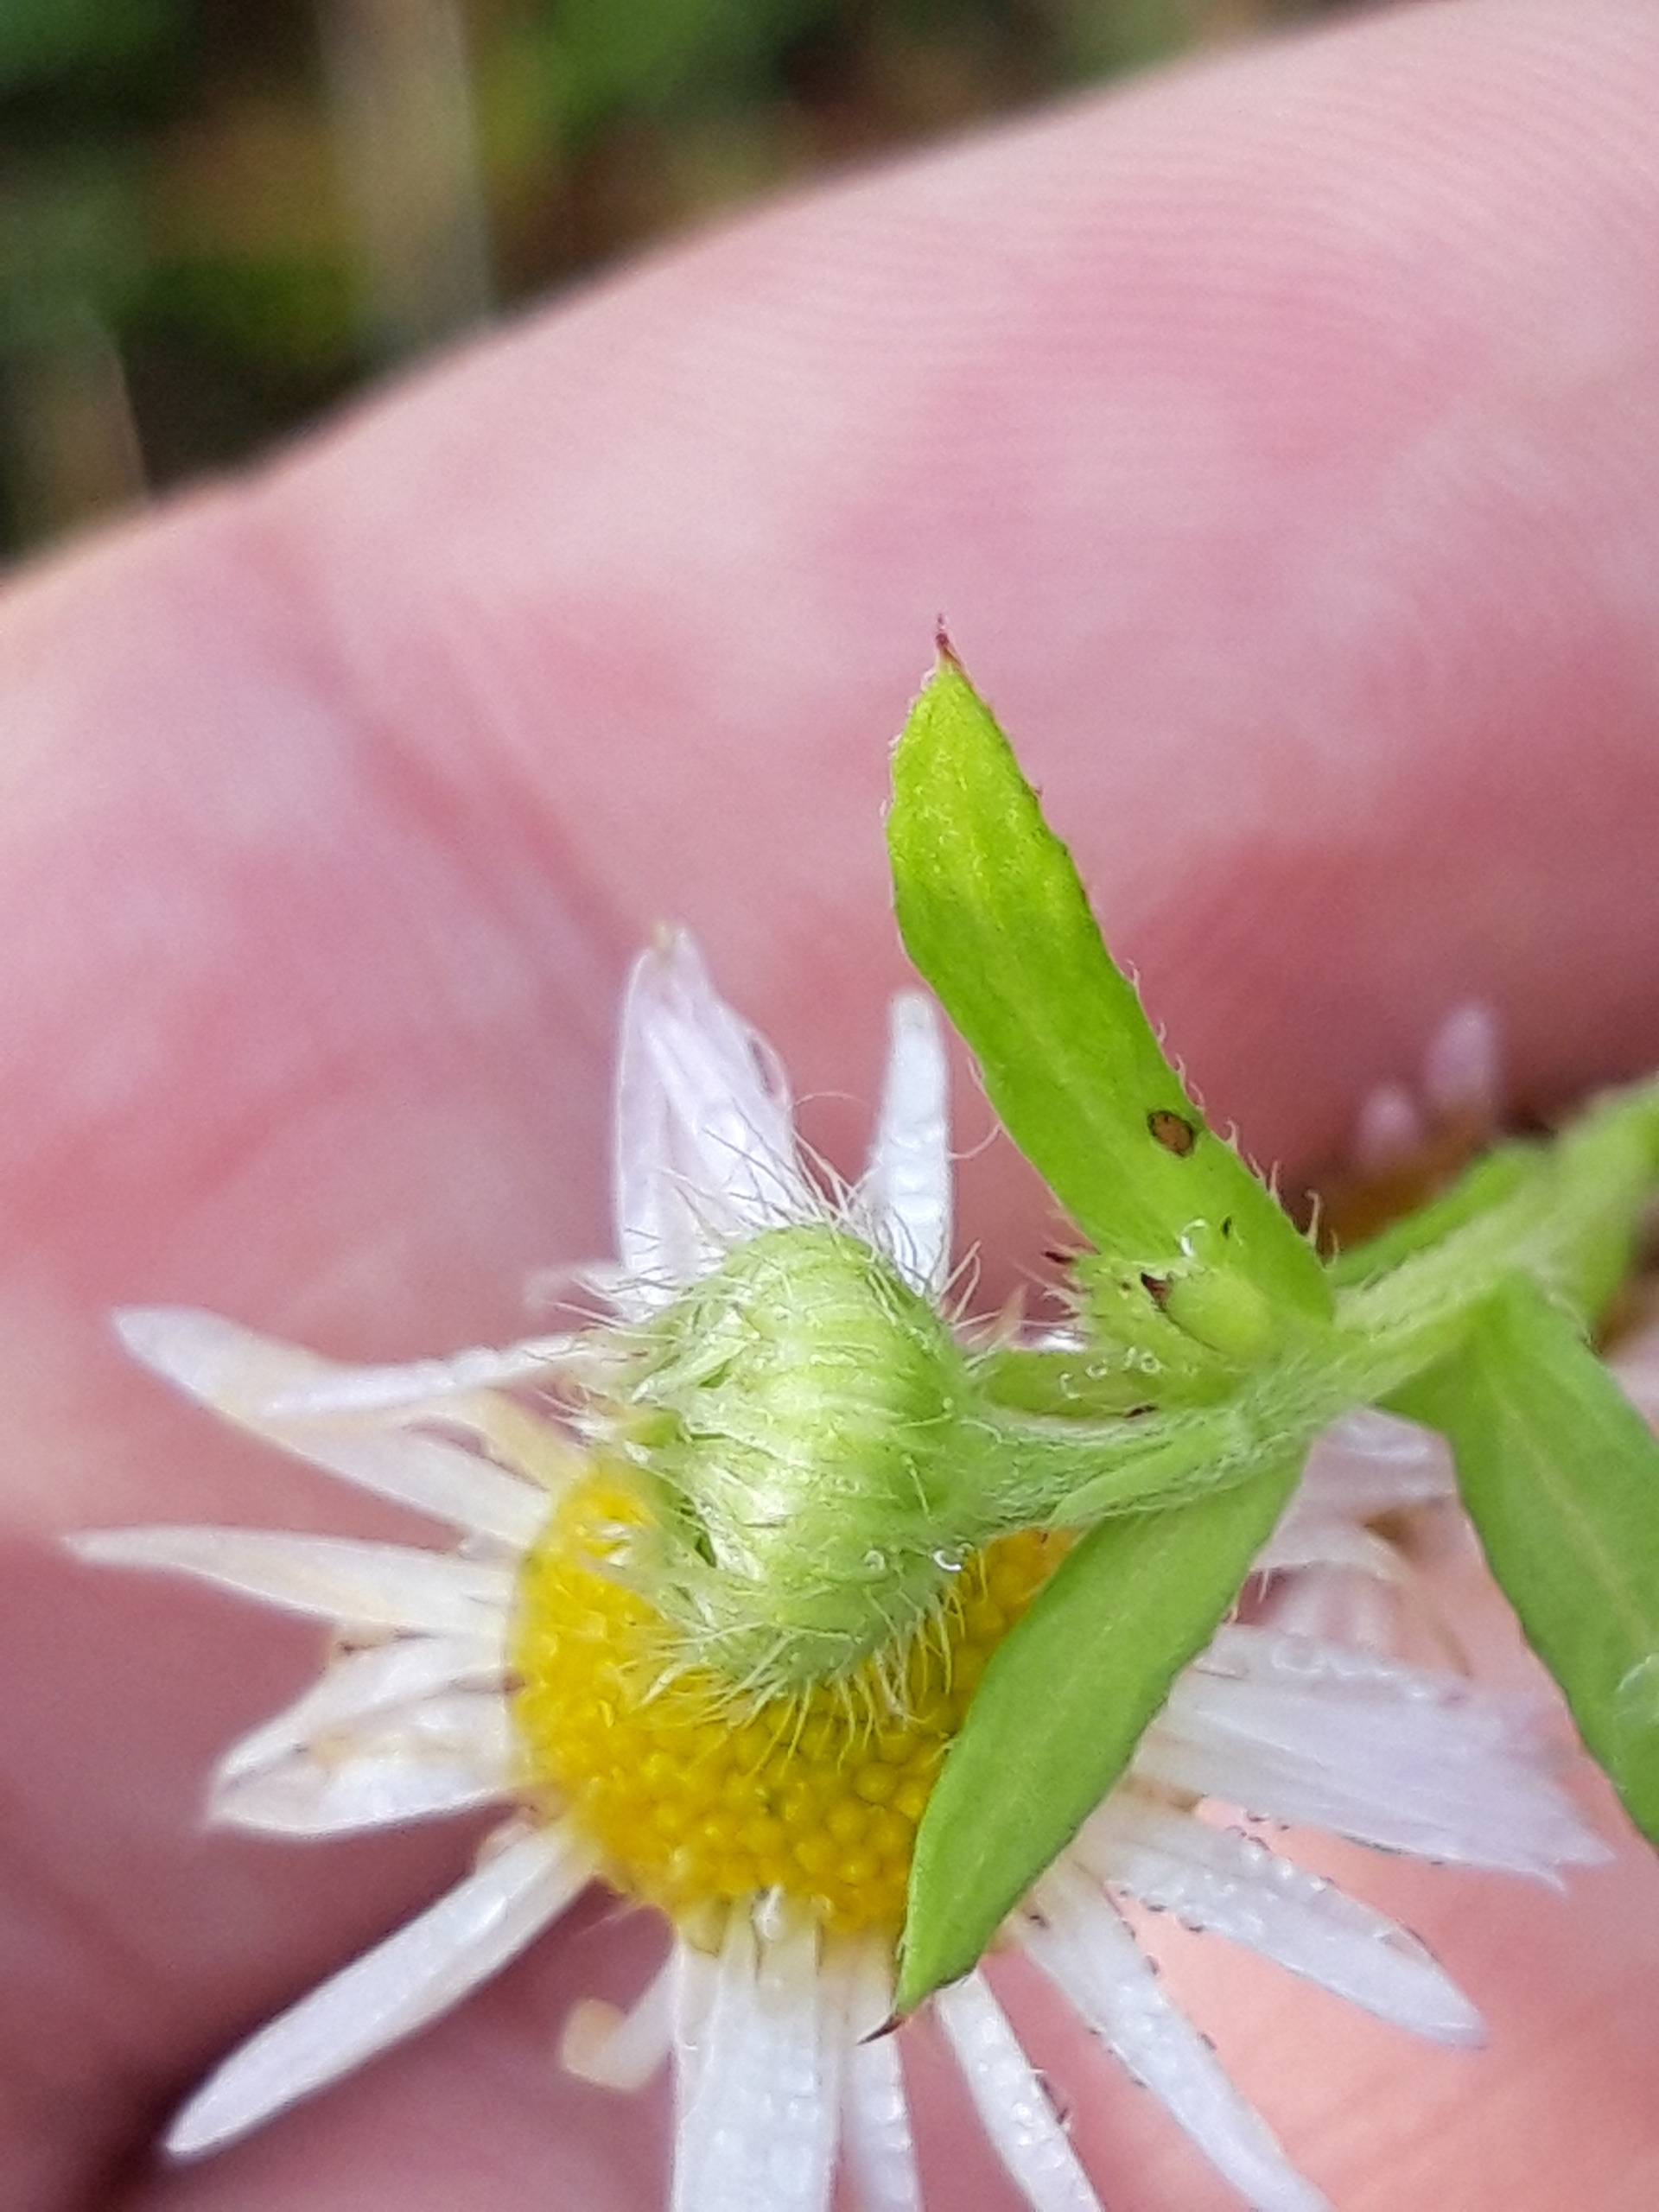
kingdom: Plantae
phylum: Tracheophyta
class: Magnoliopsida
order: Asterales
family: Asteraceae
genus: Erigeron
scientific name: Erigeron annuus
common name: Smalstråle
